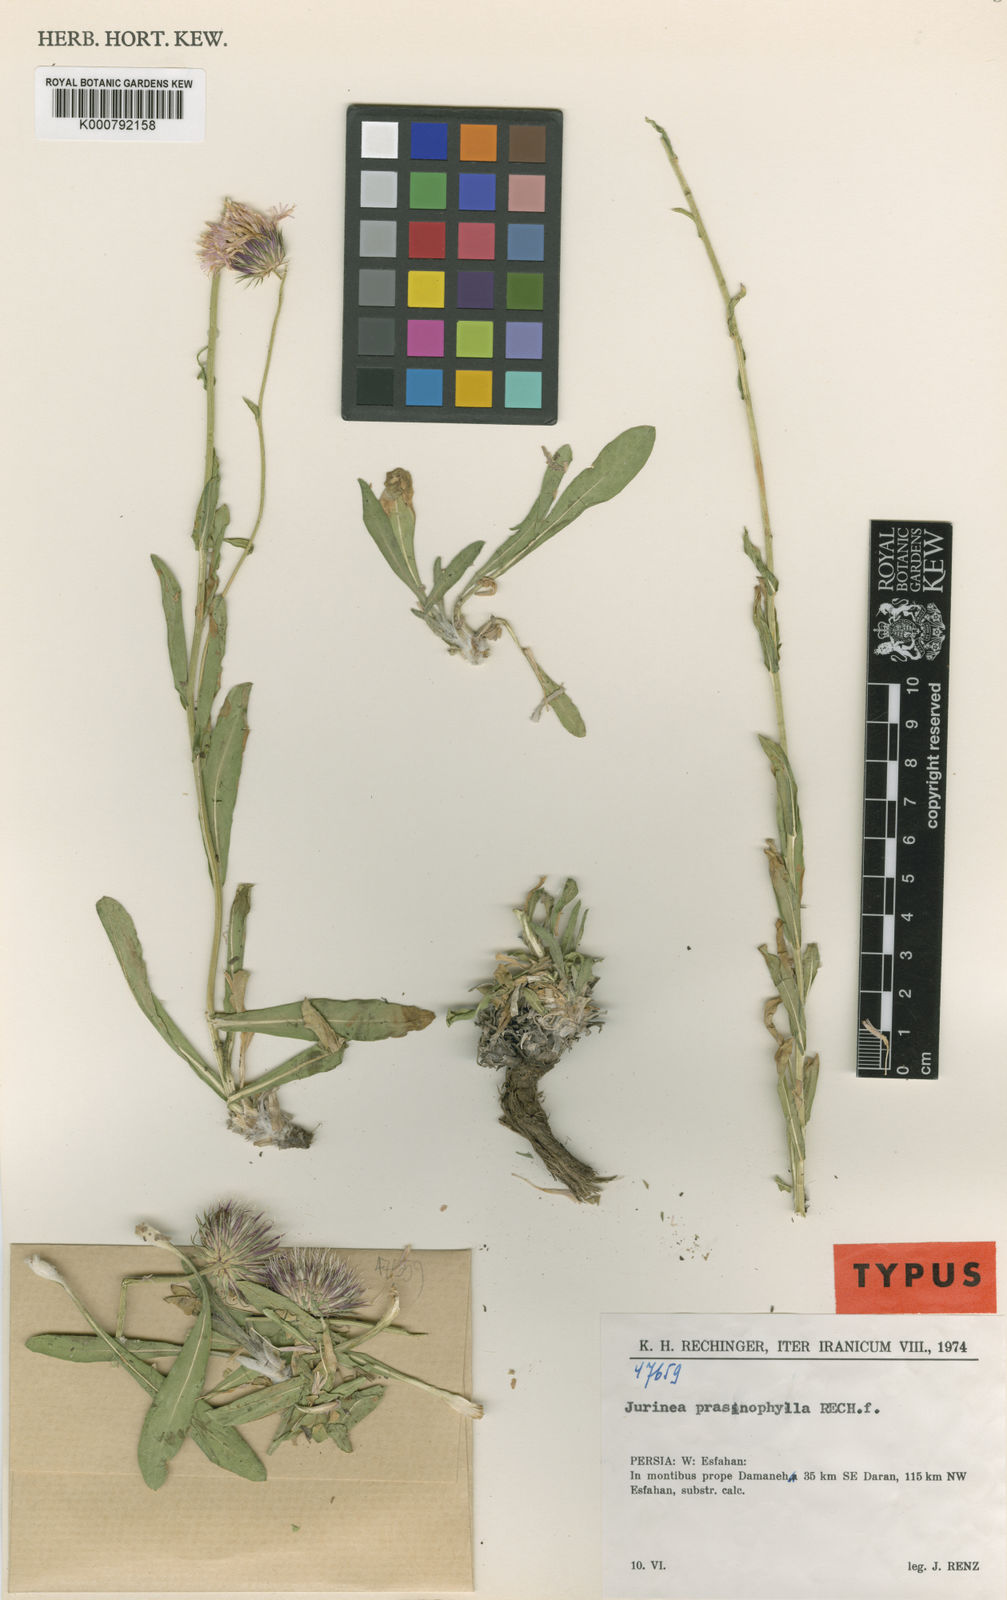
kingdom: Plantae
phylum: Tracheophyta
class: Magnoliopsida
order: Asterales
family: Asteraceae
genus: Jurinea
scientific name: Jurinea prasinophylla
